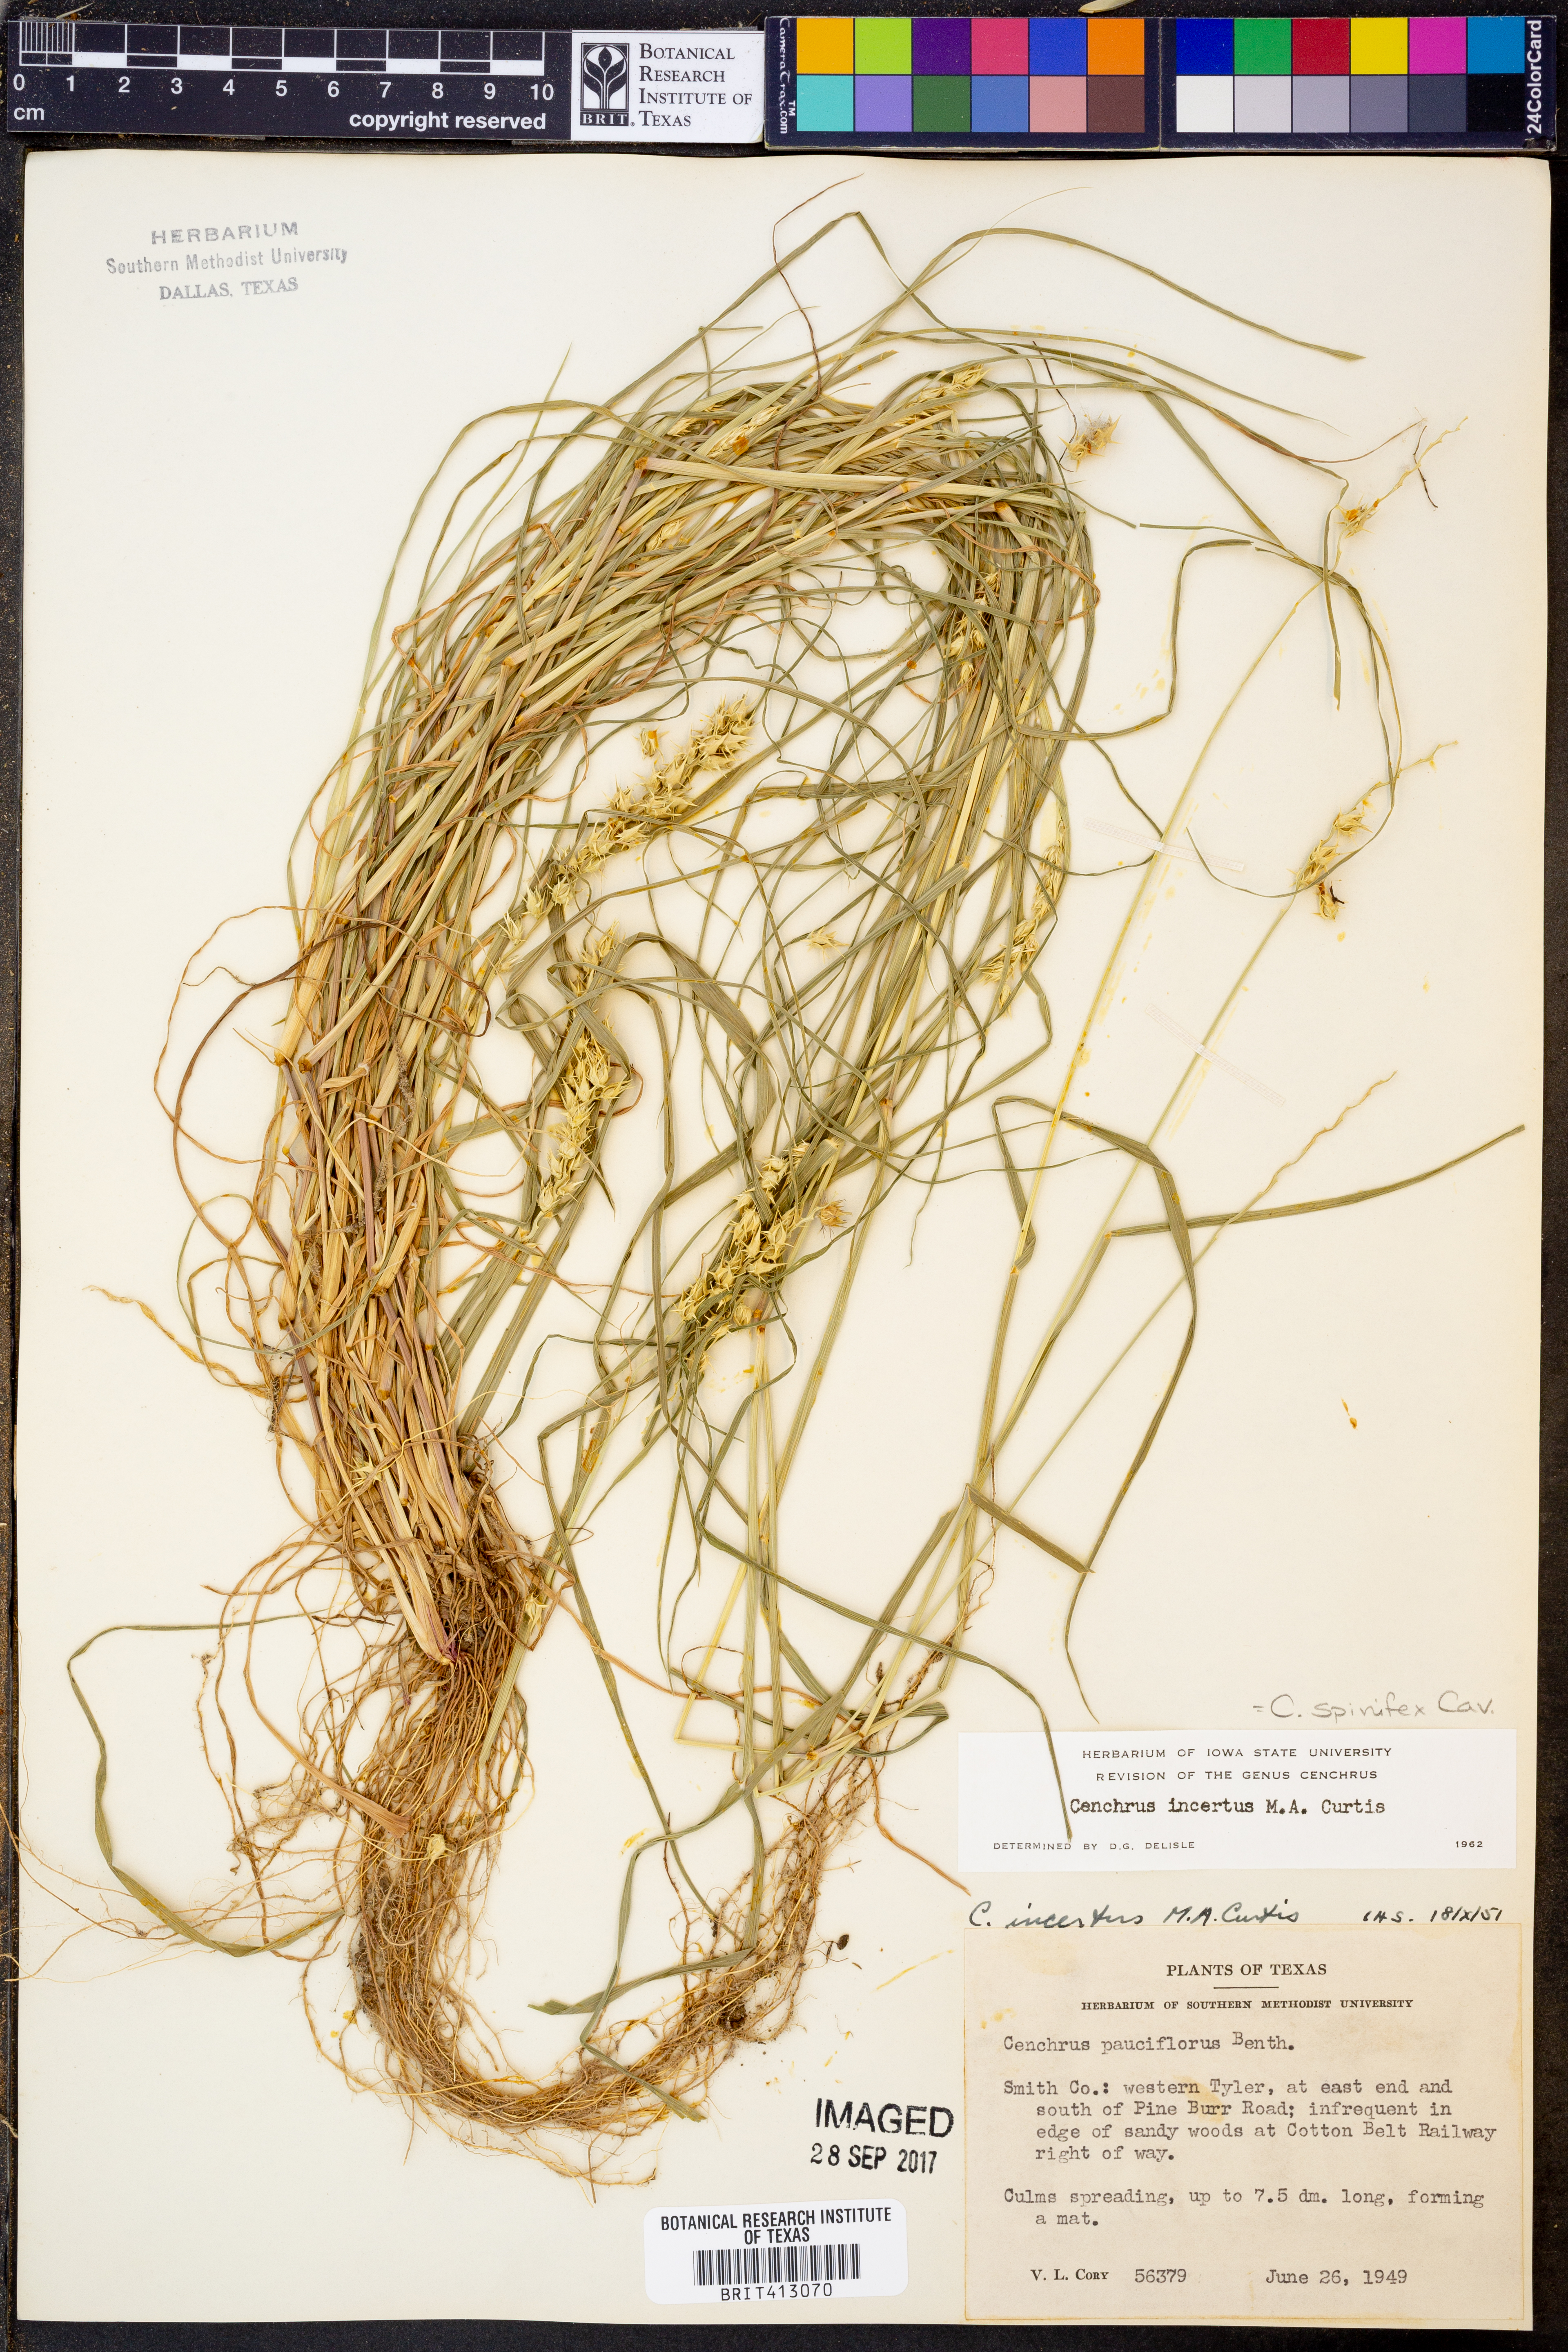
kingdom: Plantae
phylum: Tracheophyta
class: Liliopsida
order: Poales
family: Poaceae
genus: Cenchrus
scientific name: Cenchrus spinifex
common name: Coast sandbur
